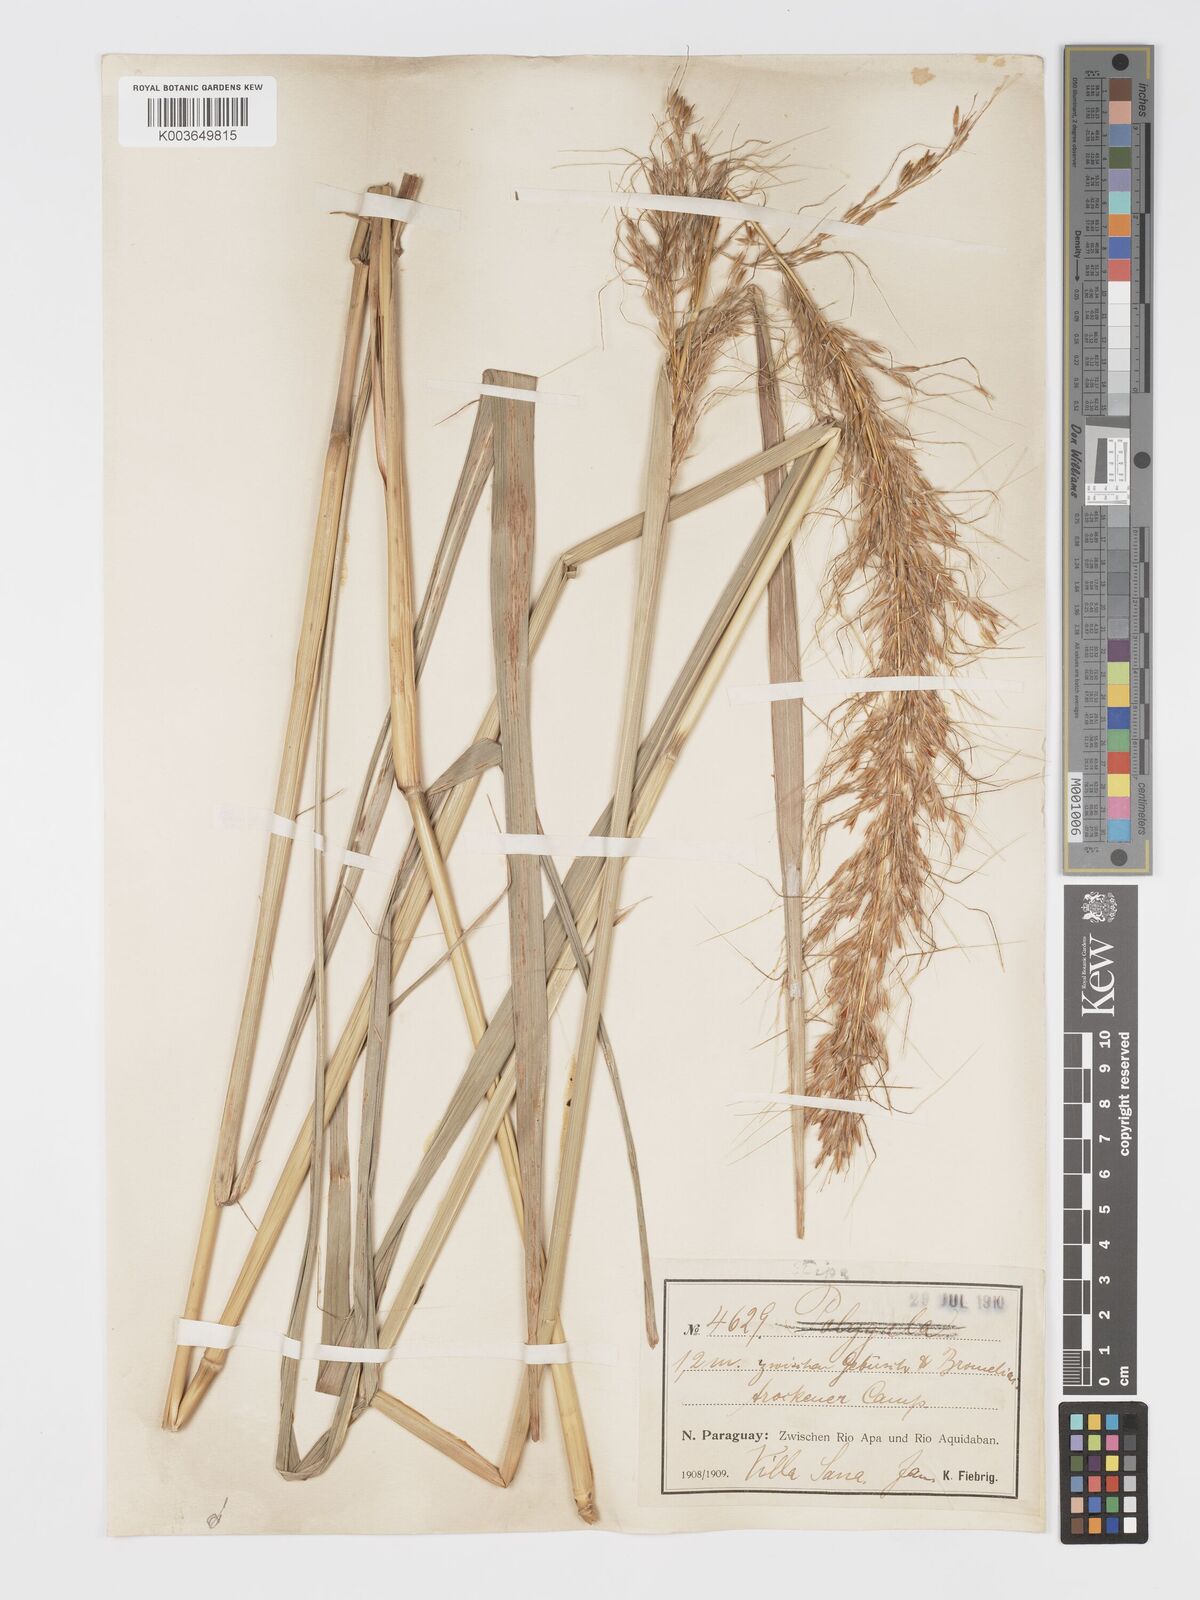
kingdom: Plantae
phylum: Tracheophyta
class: Liliopsida
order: Poales
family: Poaceae
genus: Sorghastrum
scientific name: Sorghastrum balansae
